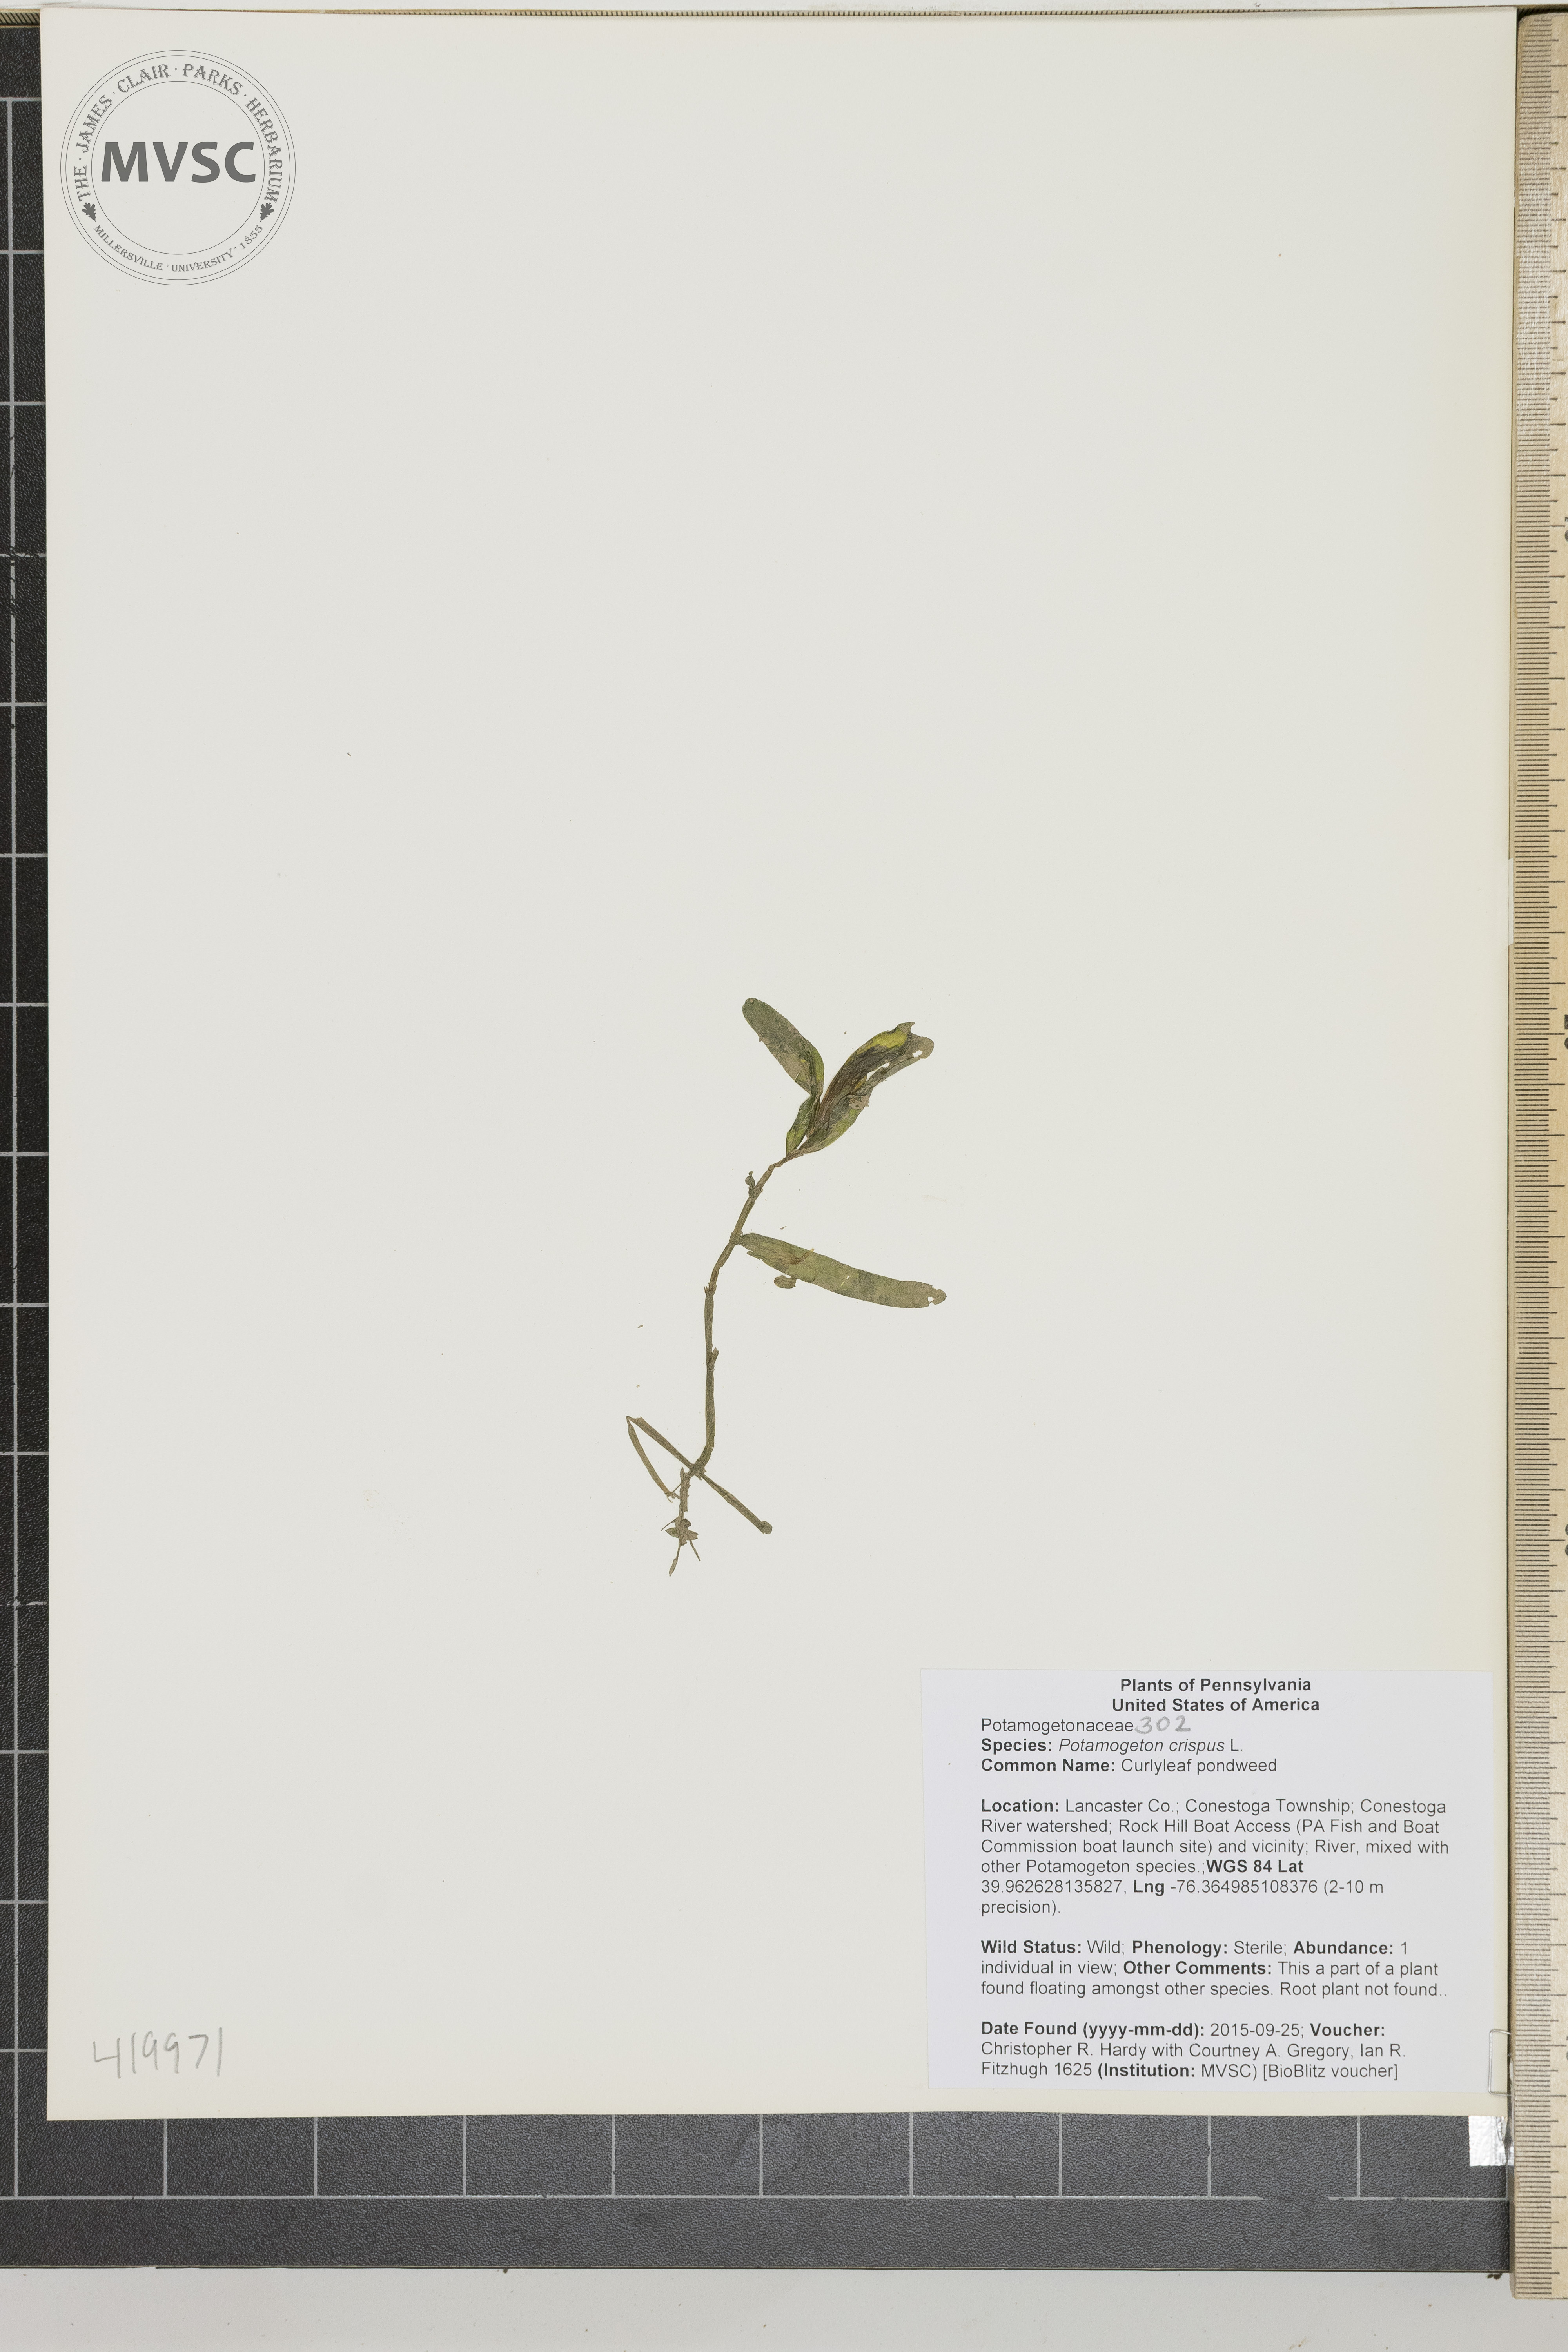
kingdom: Plantae
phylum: Tracheophyta
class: Liliopsida
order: Alismatales
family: Potamogetonaceae
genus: Potamogeton
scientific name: Potamogeton crispus
